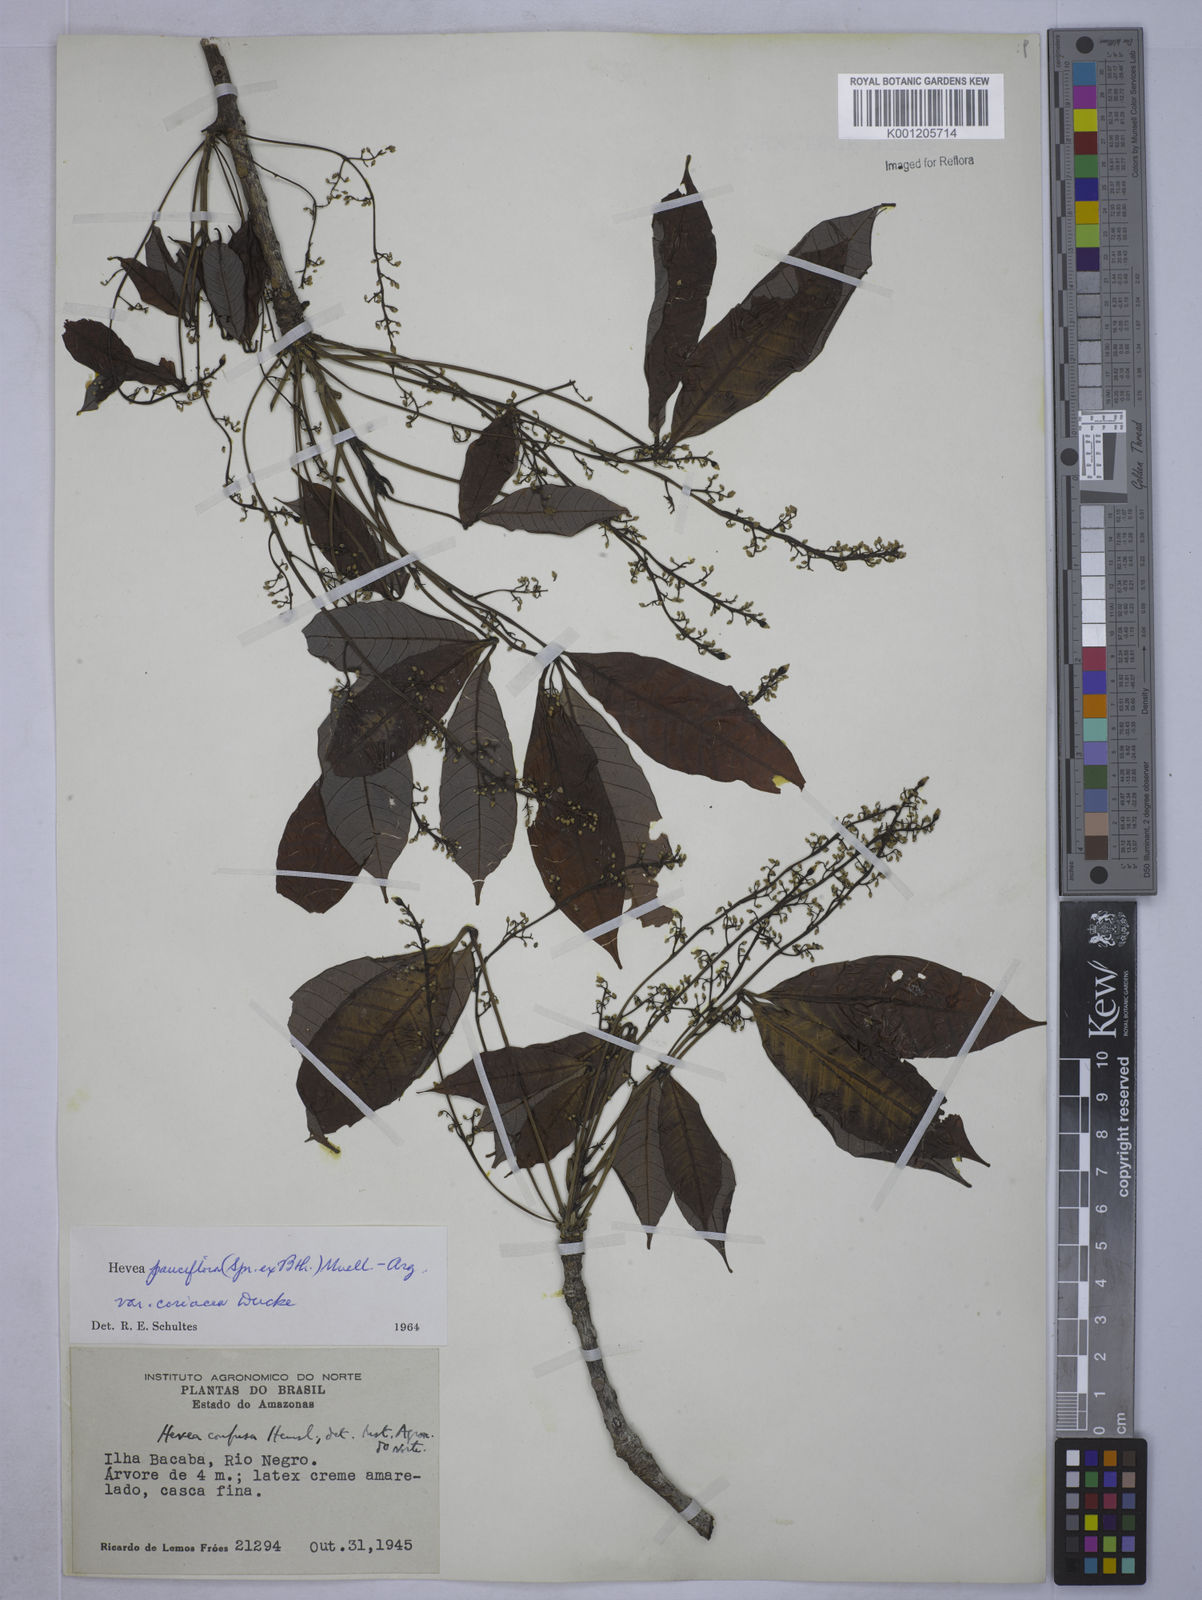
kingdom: Plantae
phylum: Tracheophyta
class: Magnoliopsida
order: Malpighiales
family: Euphorbiaceae
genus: Hevea
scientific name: Hevea pauciflora
